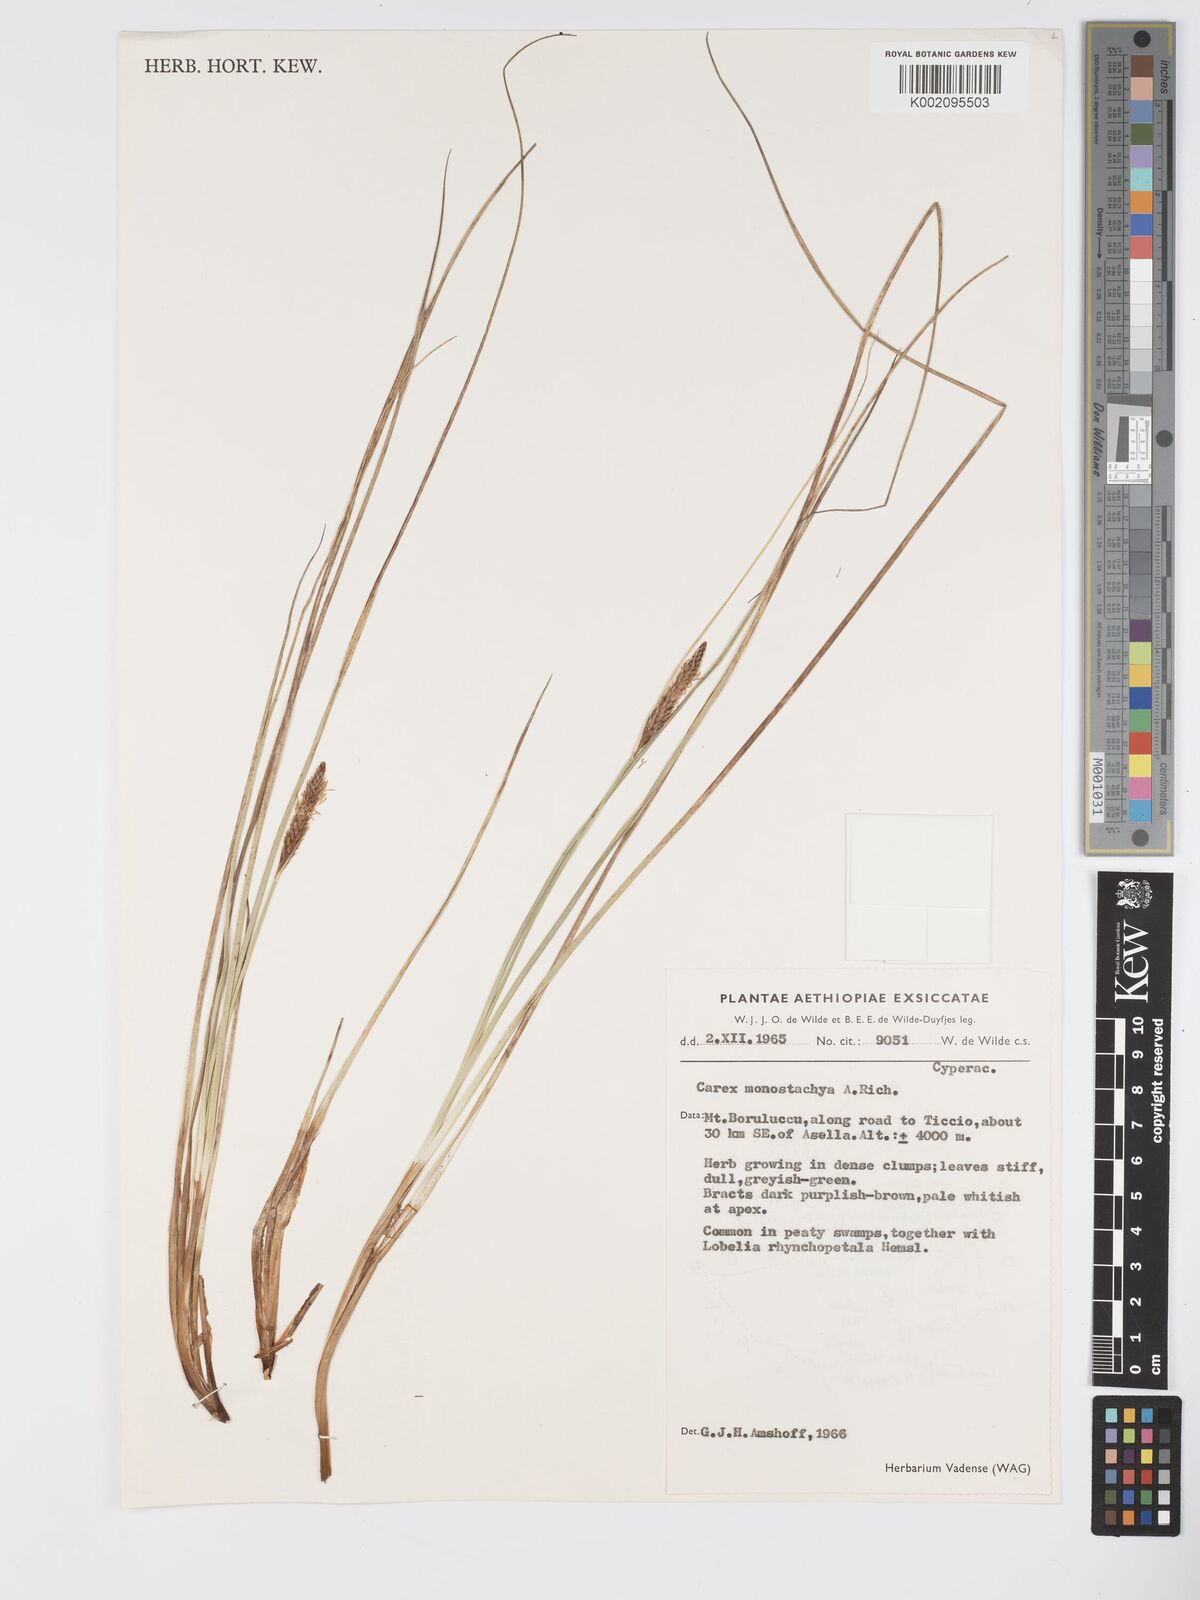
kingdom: Plantae
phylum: Tracheophyta
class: Liliopsida
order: Poales
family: Cyperaceae
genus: Carex
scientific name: Carex monostachya
